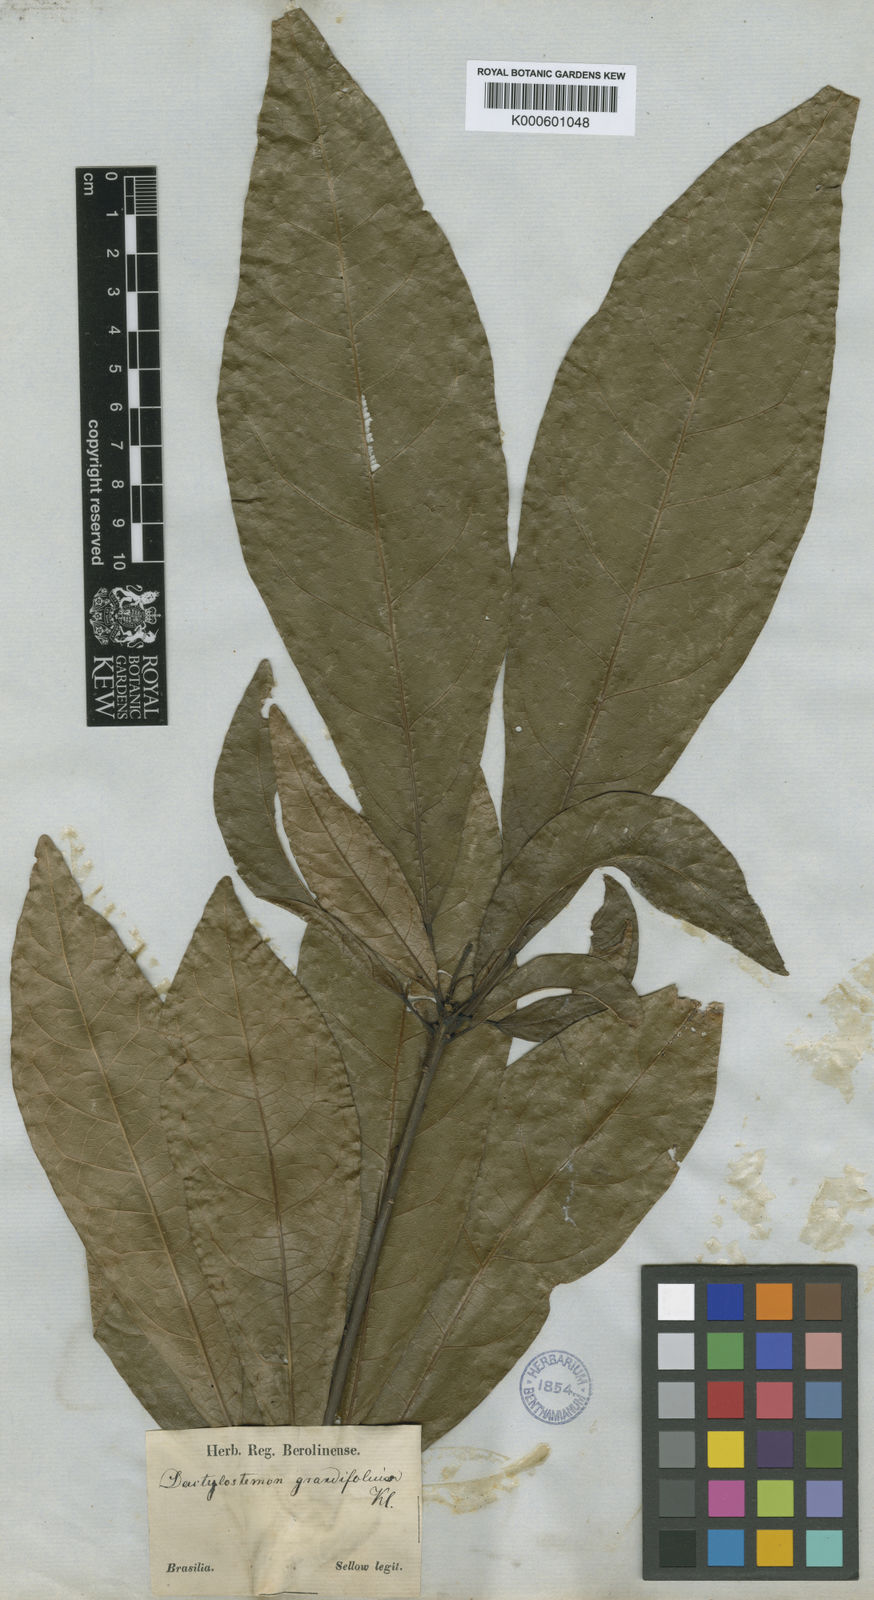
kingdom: Plantae
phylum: Tracheophyta
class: Magnoliopsida
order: Malpighiales
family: Euphorbiaceae
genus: Actinostemon
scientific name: Actinostemon
